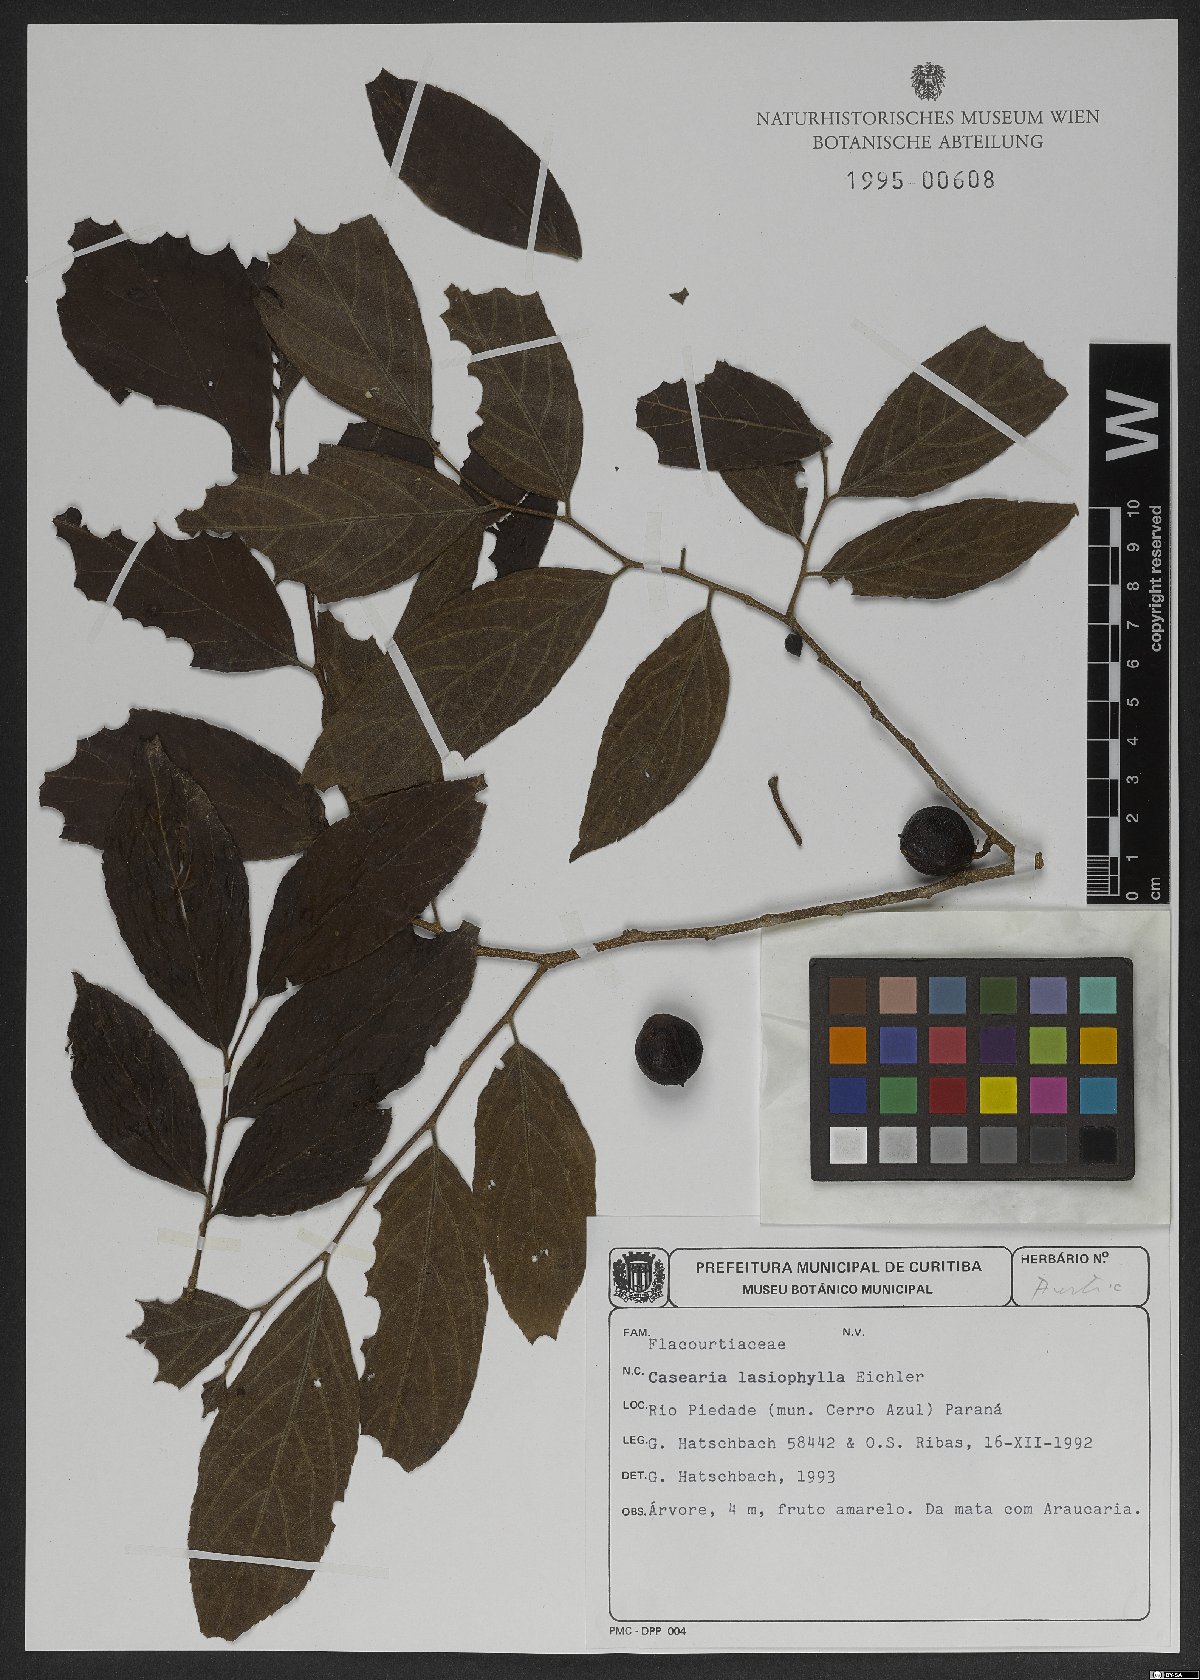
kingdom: Plantae
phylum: Tracheophyta
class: Magnoliopsida
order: Malpighiales
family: Salicaceae
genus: Casearia
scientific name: Casearia lasiophylla
